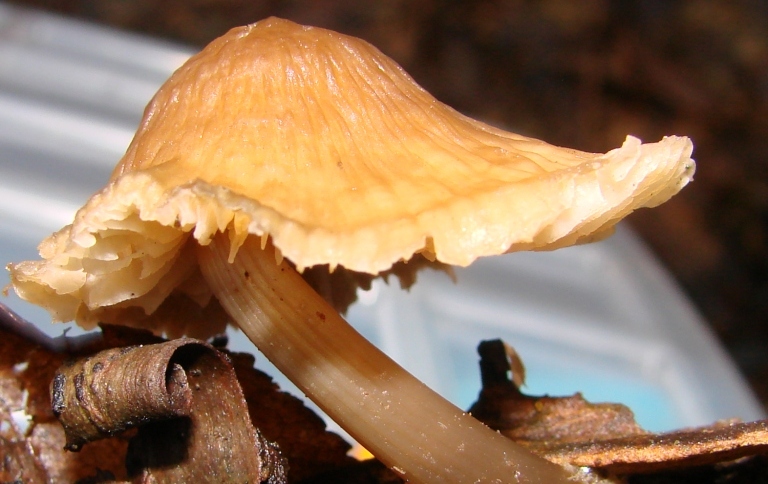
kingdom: Fungi
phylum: Basidiomycota
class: Agaricomycetes
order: Agaricales
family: Mycenaceae
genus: Mycena
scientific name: Mycena galericulata
